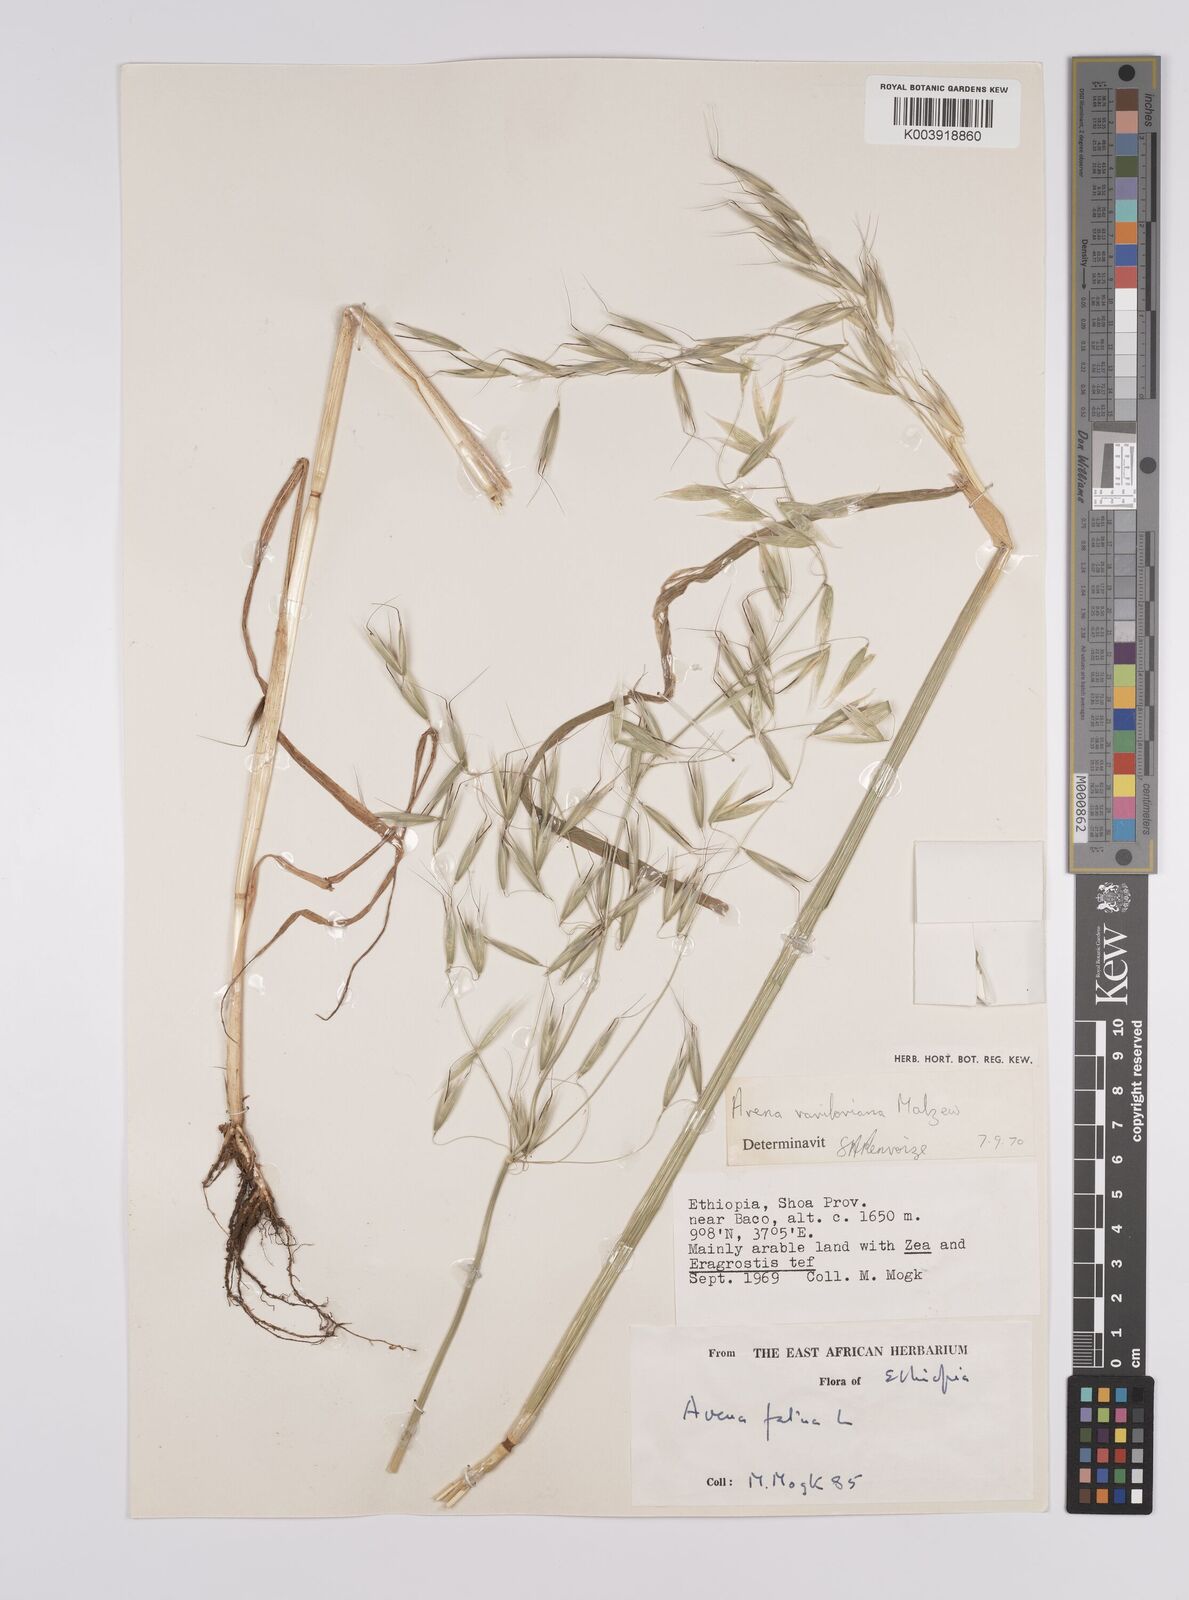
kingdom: Plantae
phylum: Tracheophyta
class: Liliopsida
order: Poales
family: Poaceae
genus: Avena
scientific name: Avena vaviloviana
